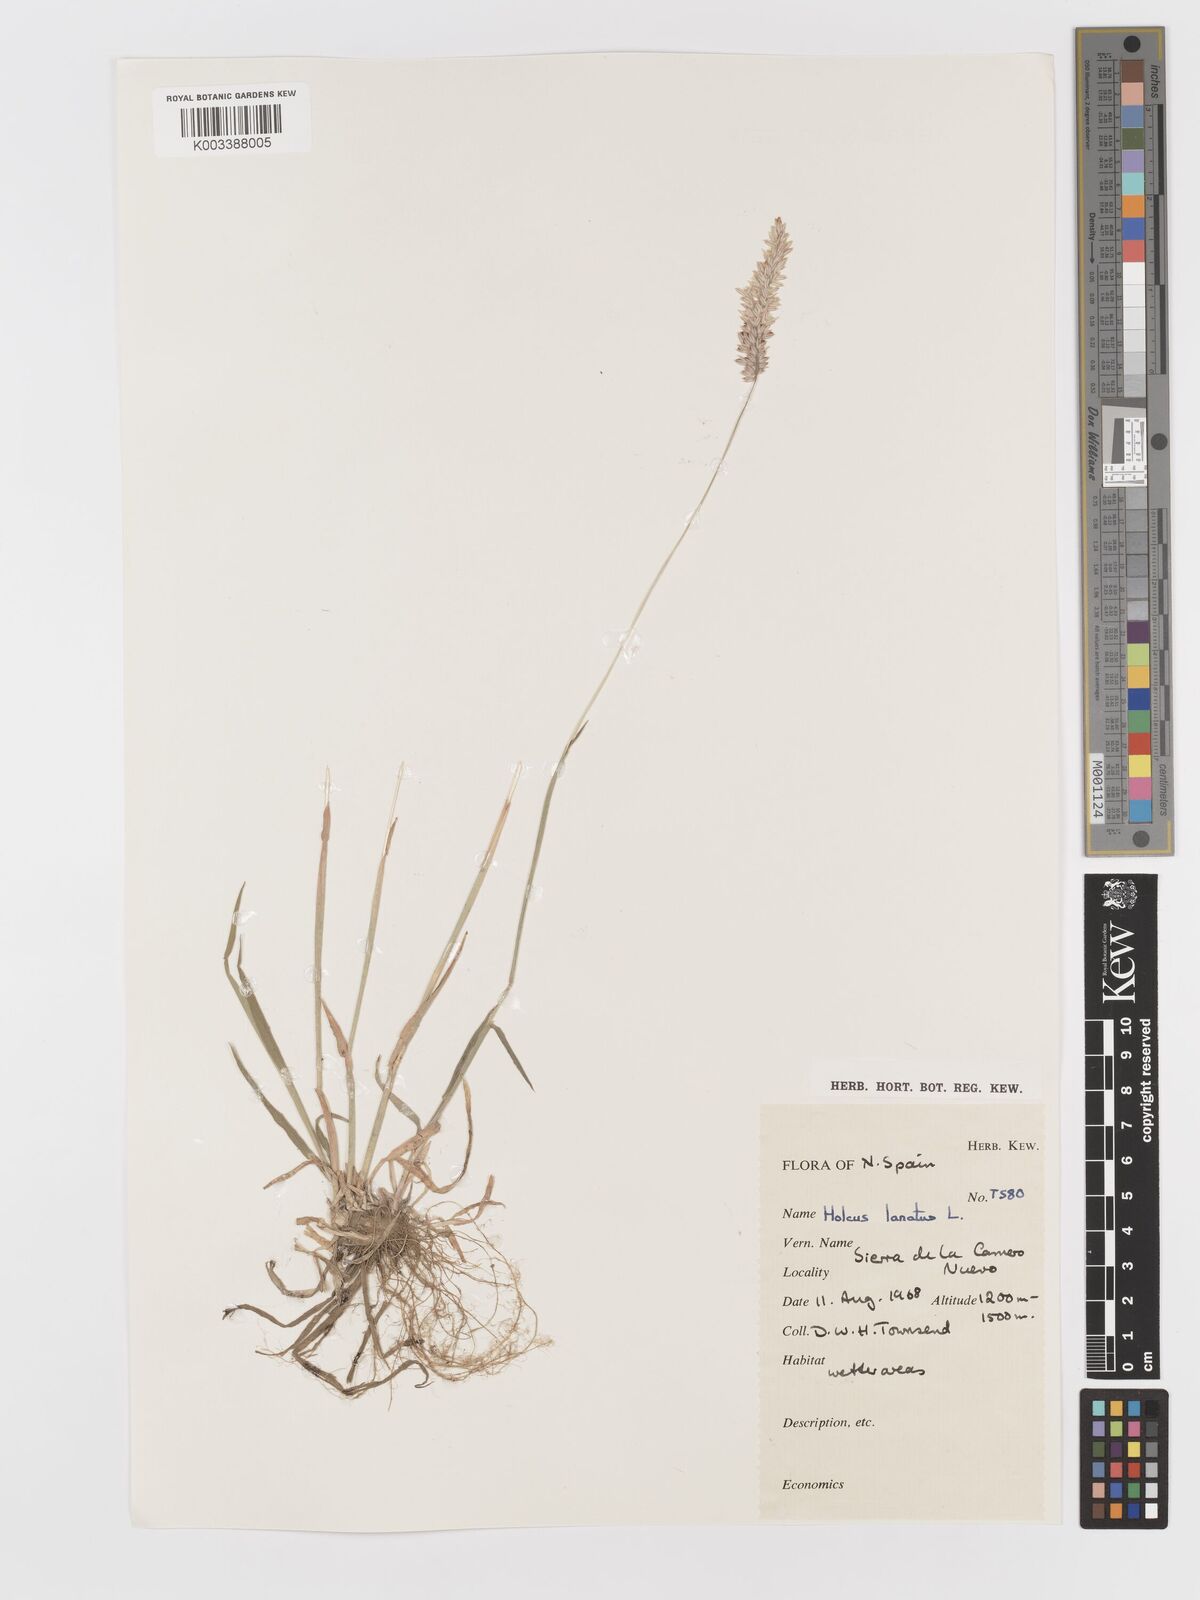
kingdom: Plantae
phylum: Tracheophyta
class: Liliopsida
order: Poales
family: Poaceae
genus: Holcus
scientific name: Holcus lanatus
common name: Yorkshire-fog
